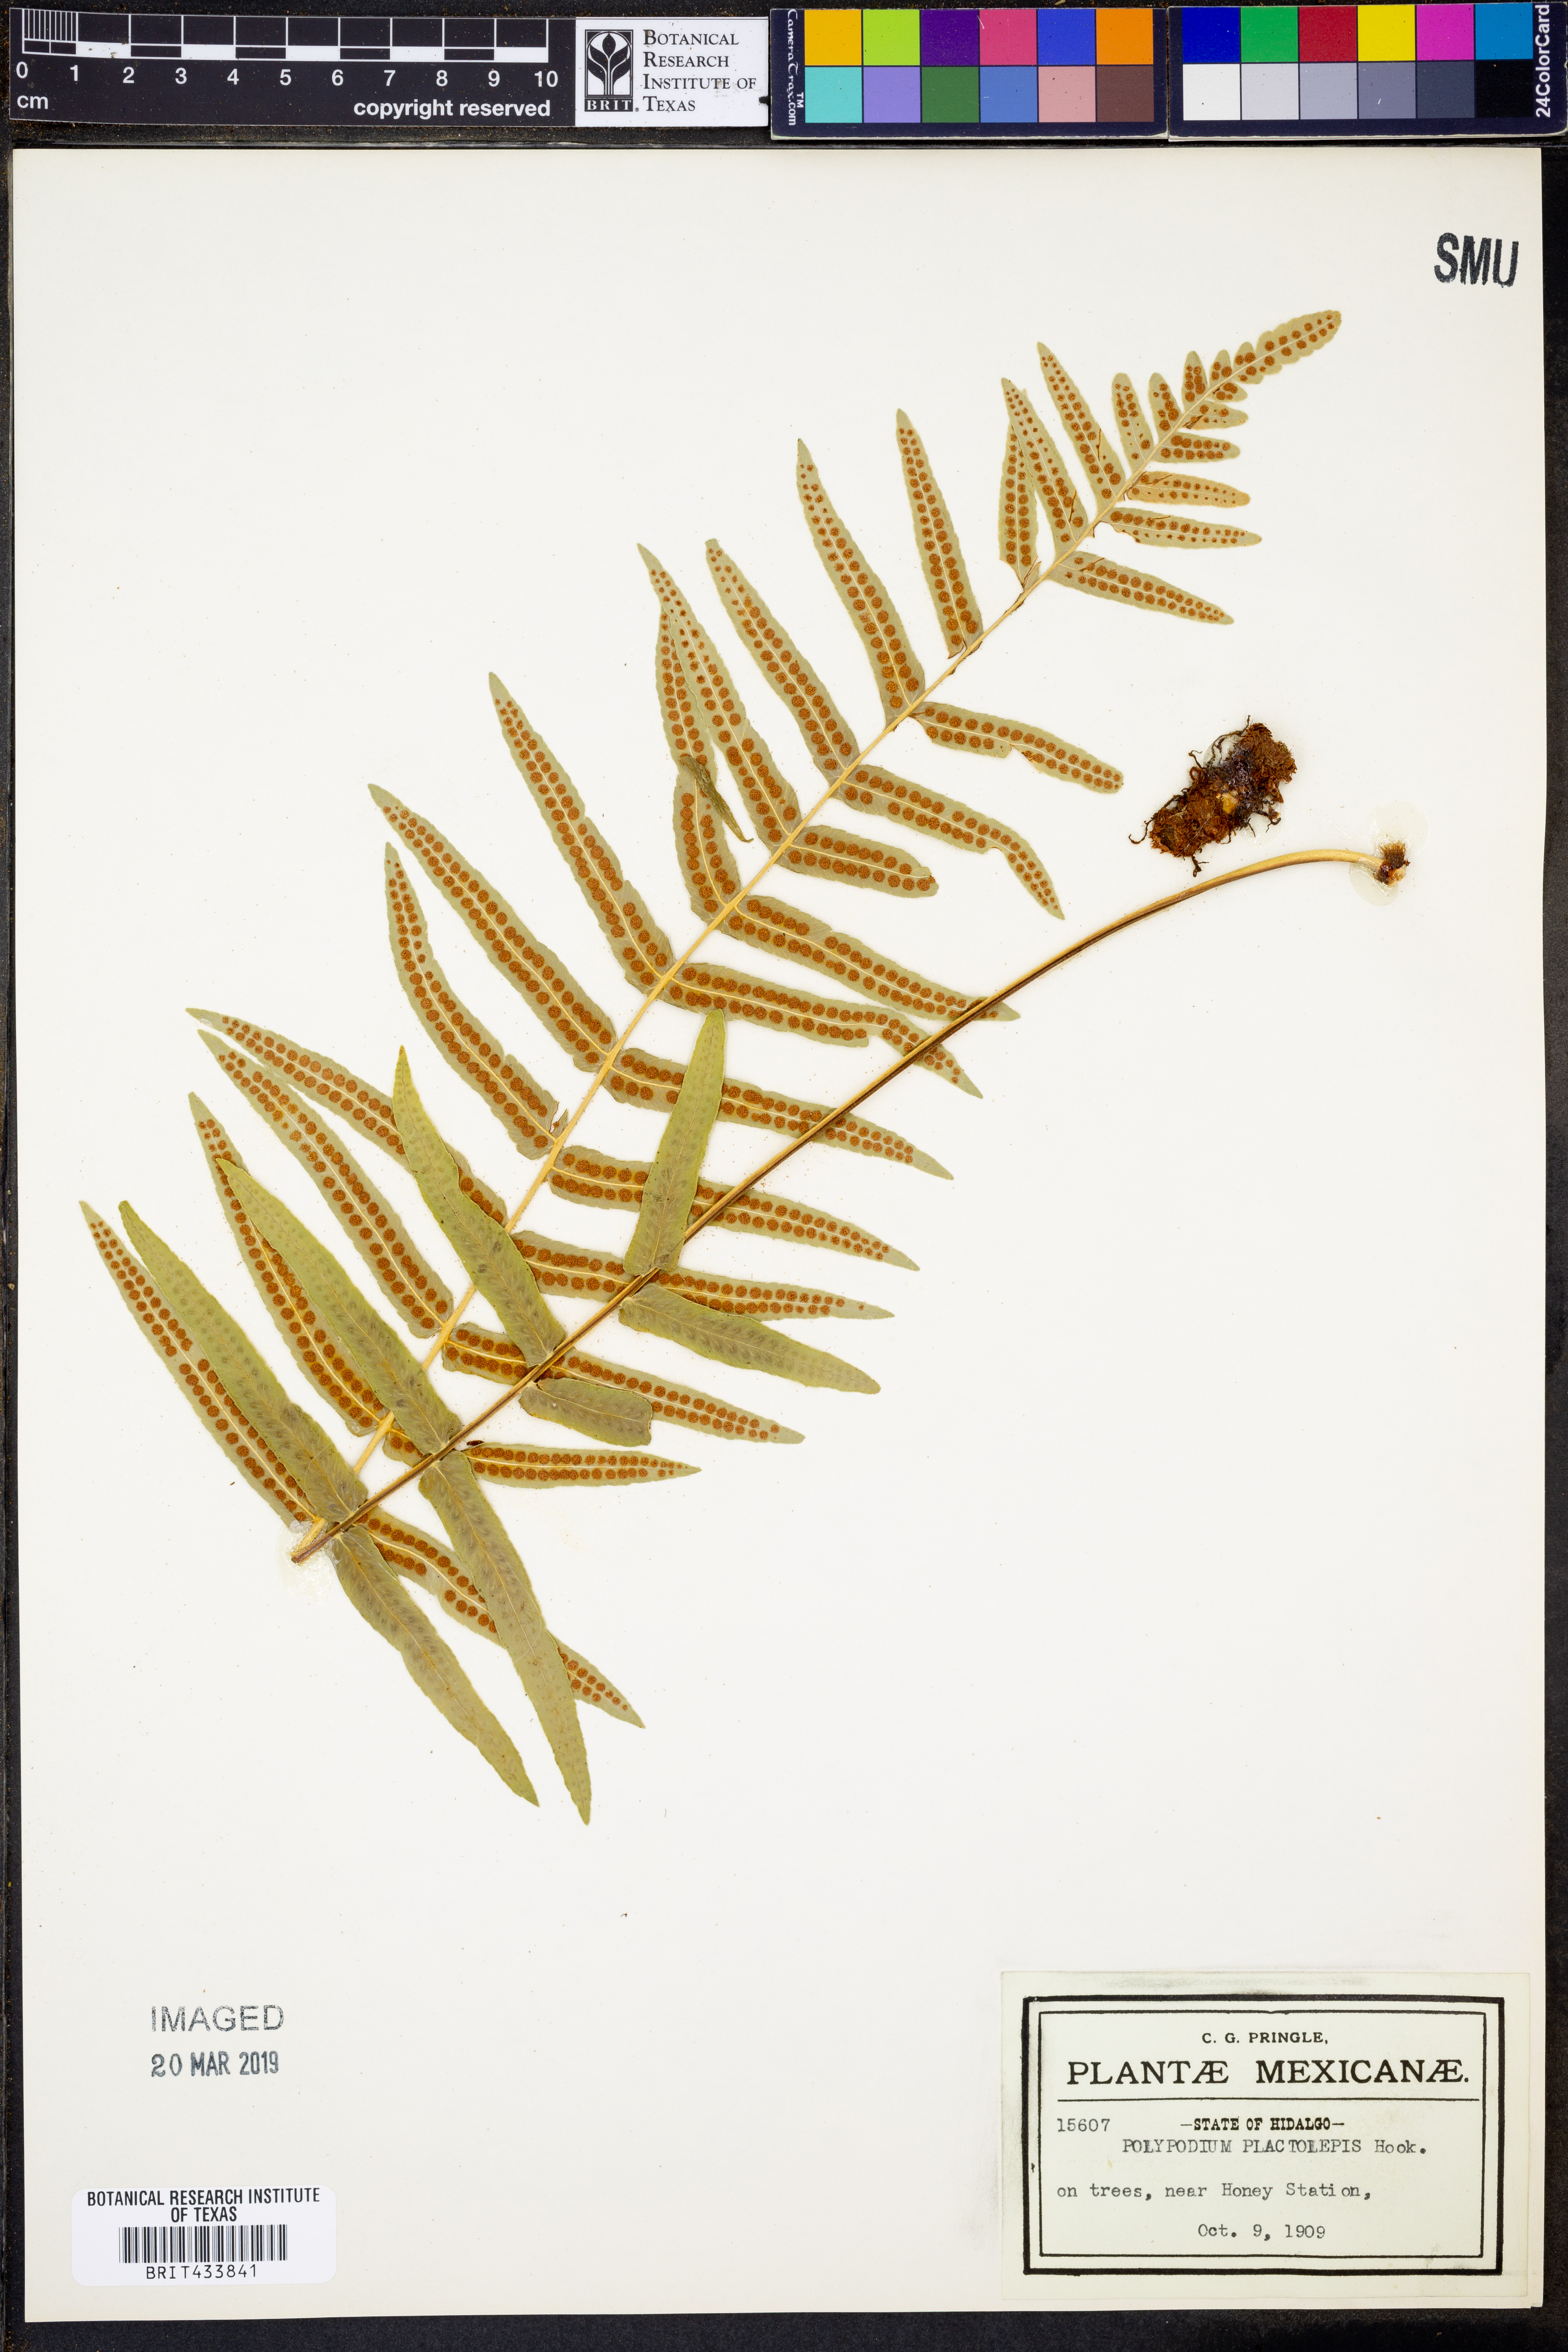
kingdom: Plantae
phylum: Tracheophyta
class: Polypodiopsida
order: Polypodiales
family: Polypodiaceae
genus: Polypodium
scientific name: Polypodium echinolepis
